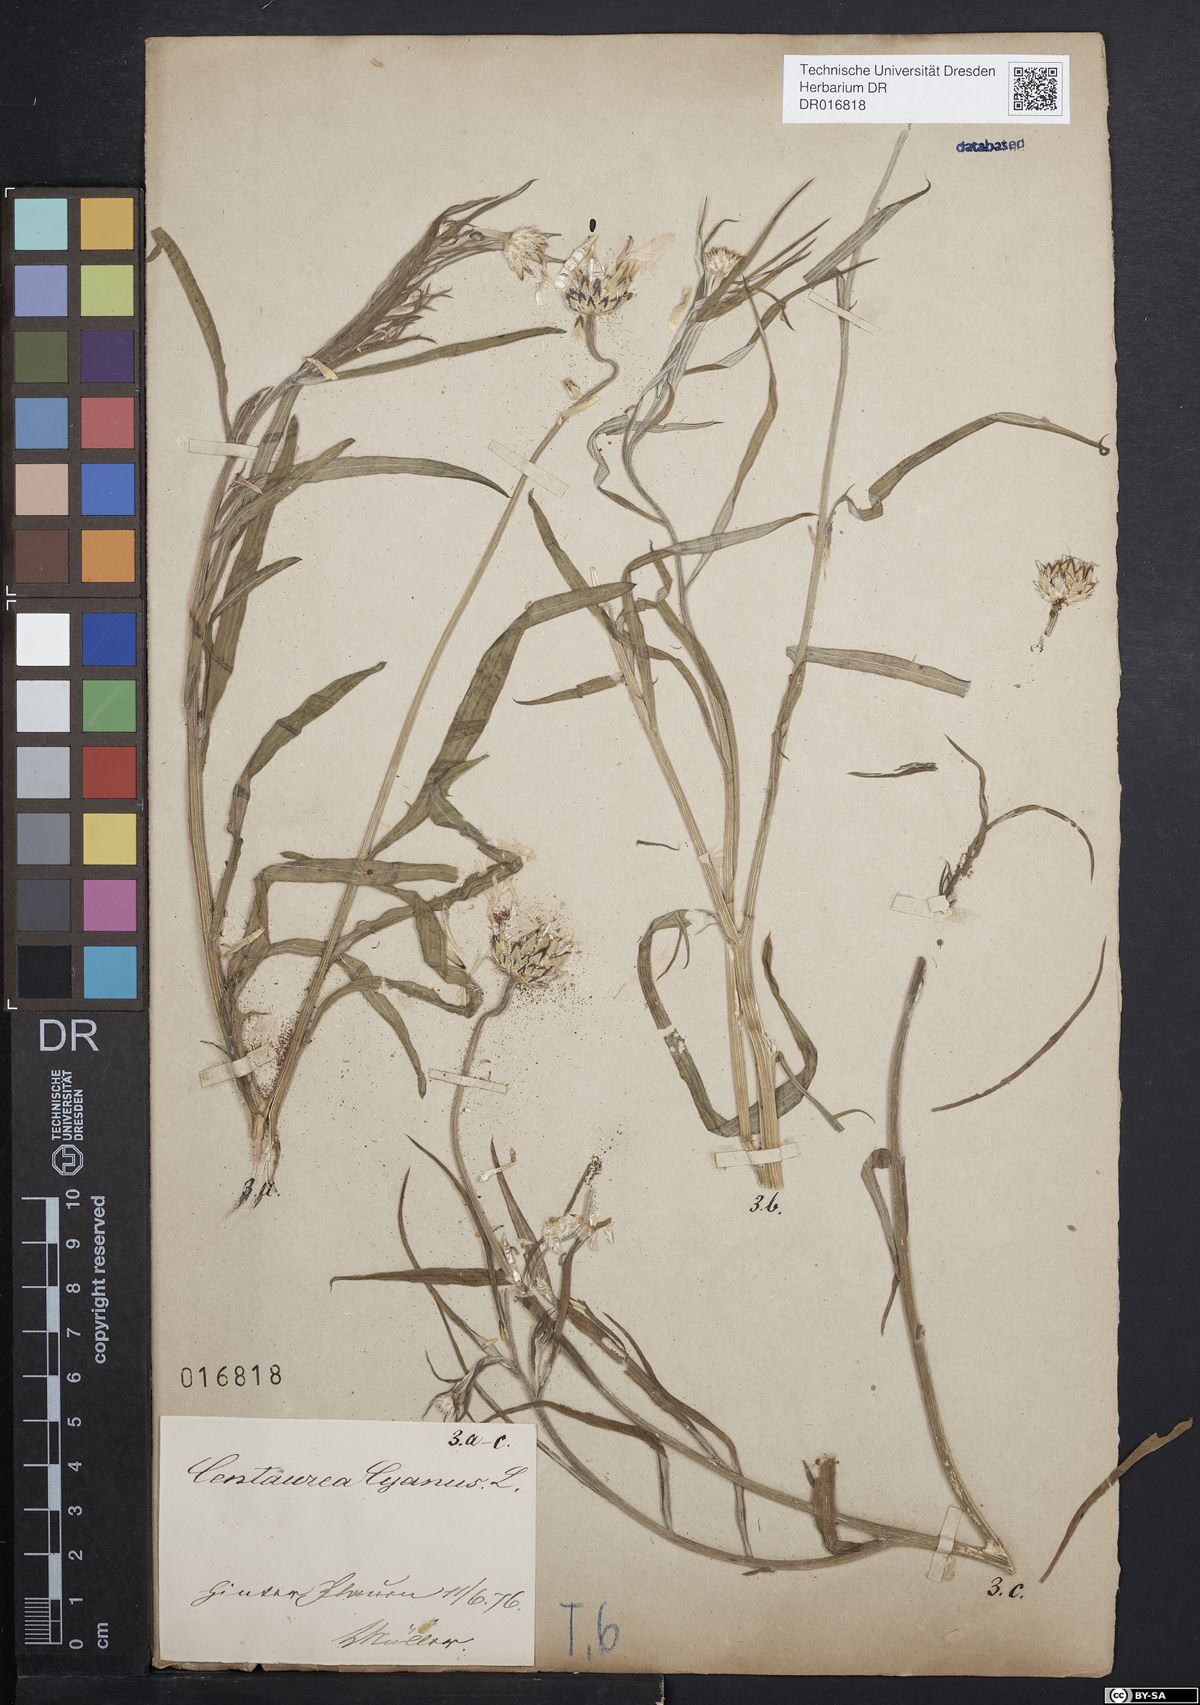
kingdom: Plantae
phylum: Tracheophyta
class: Magnoliopsida
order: Asterales
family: Asteraceae
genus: Centaurea
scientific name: Centaurea cyanus
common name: Cornflower
